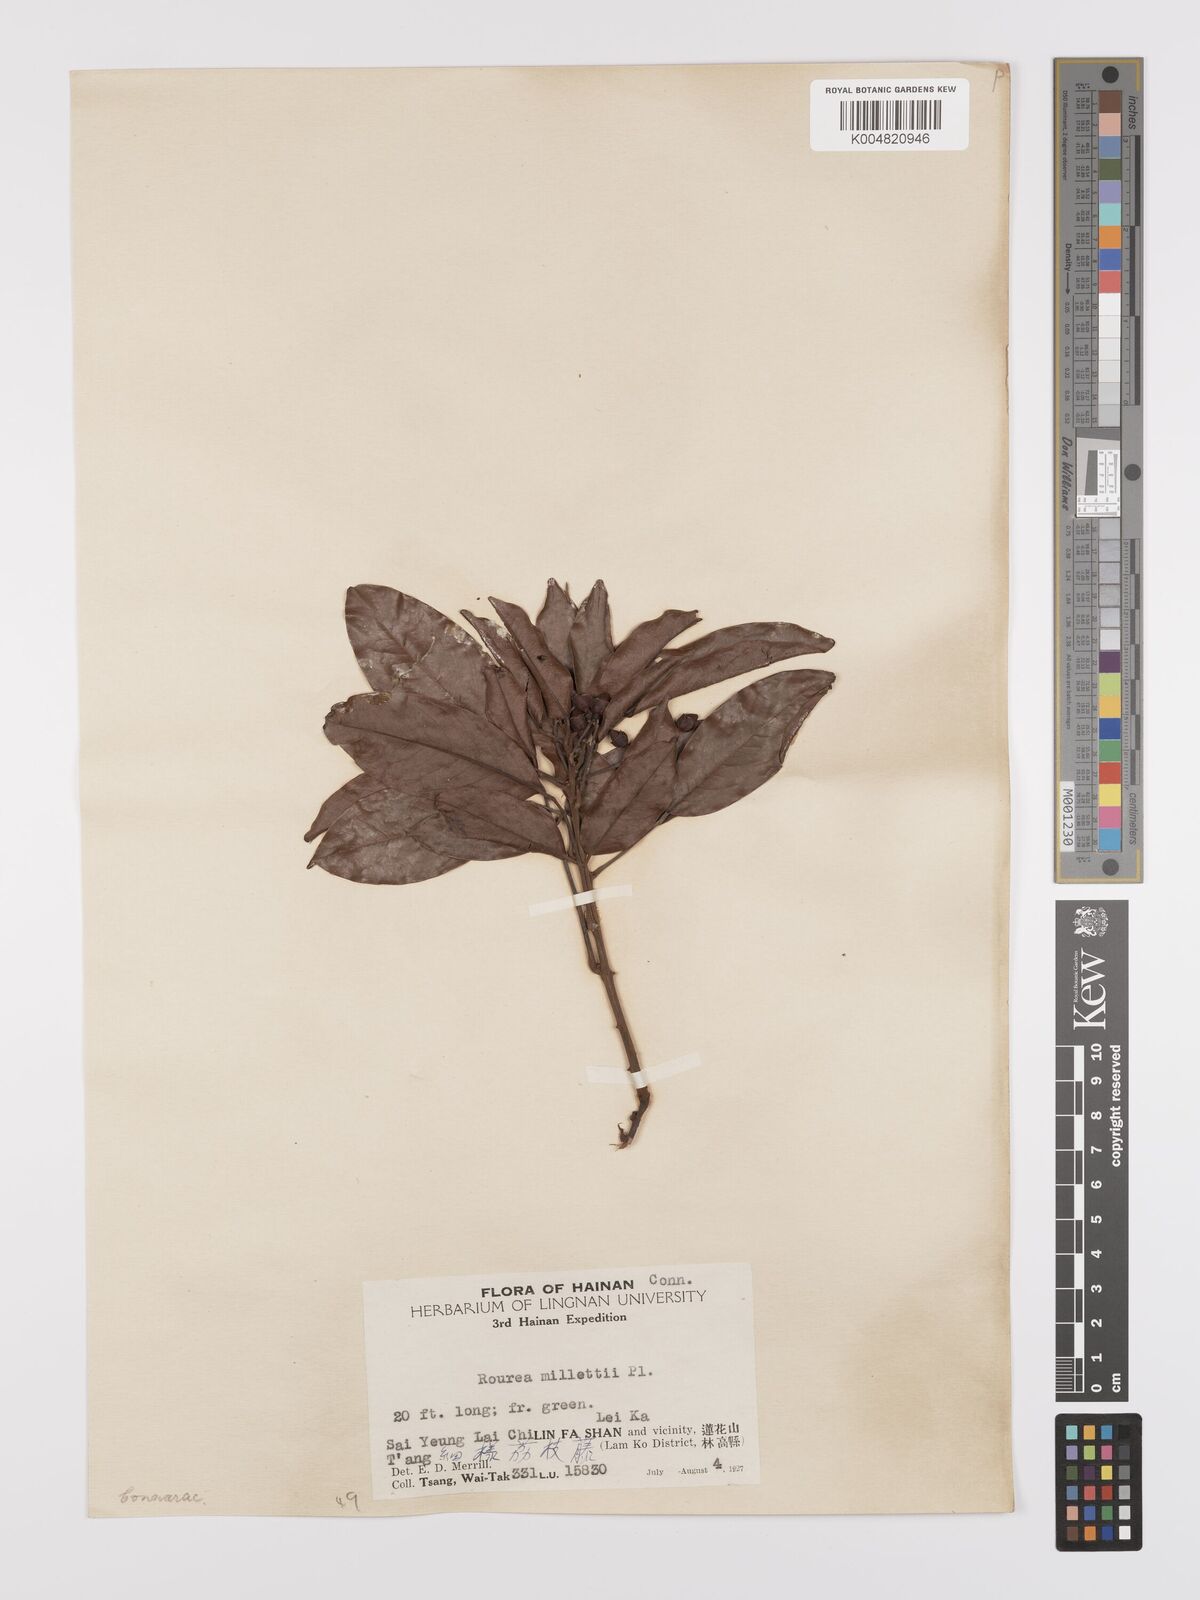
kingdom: Plantae
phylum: Tracheophyta
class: Magnoliopsida
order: Oxalidales
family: Connaraceae
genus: Rourea
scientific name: Rourea
